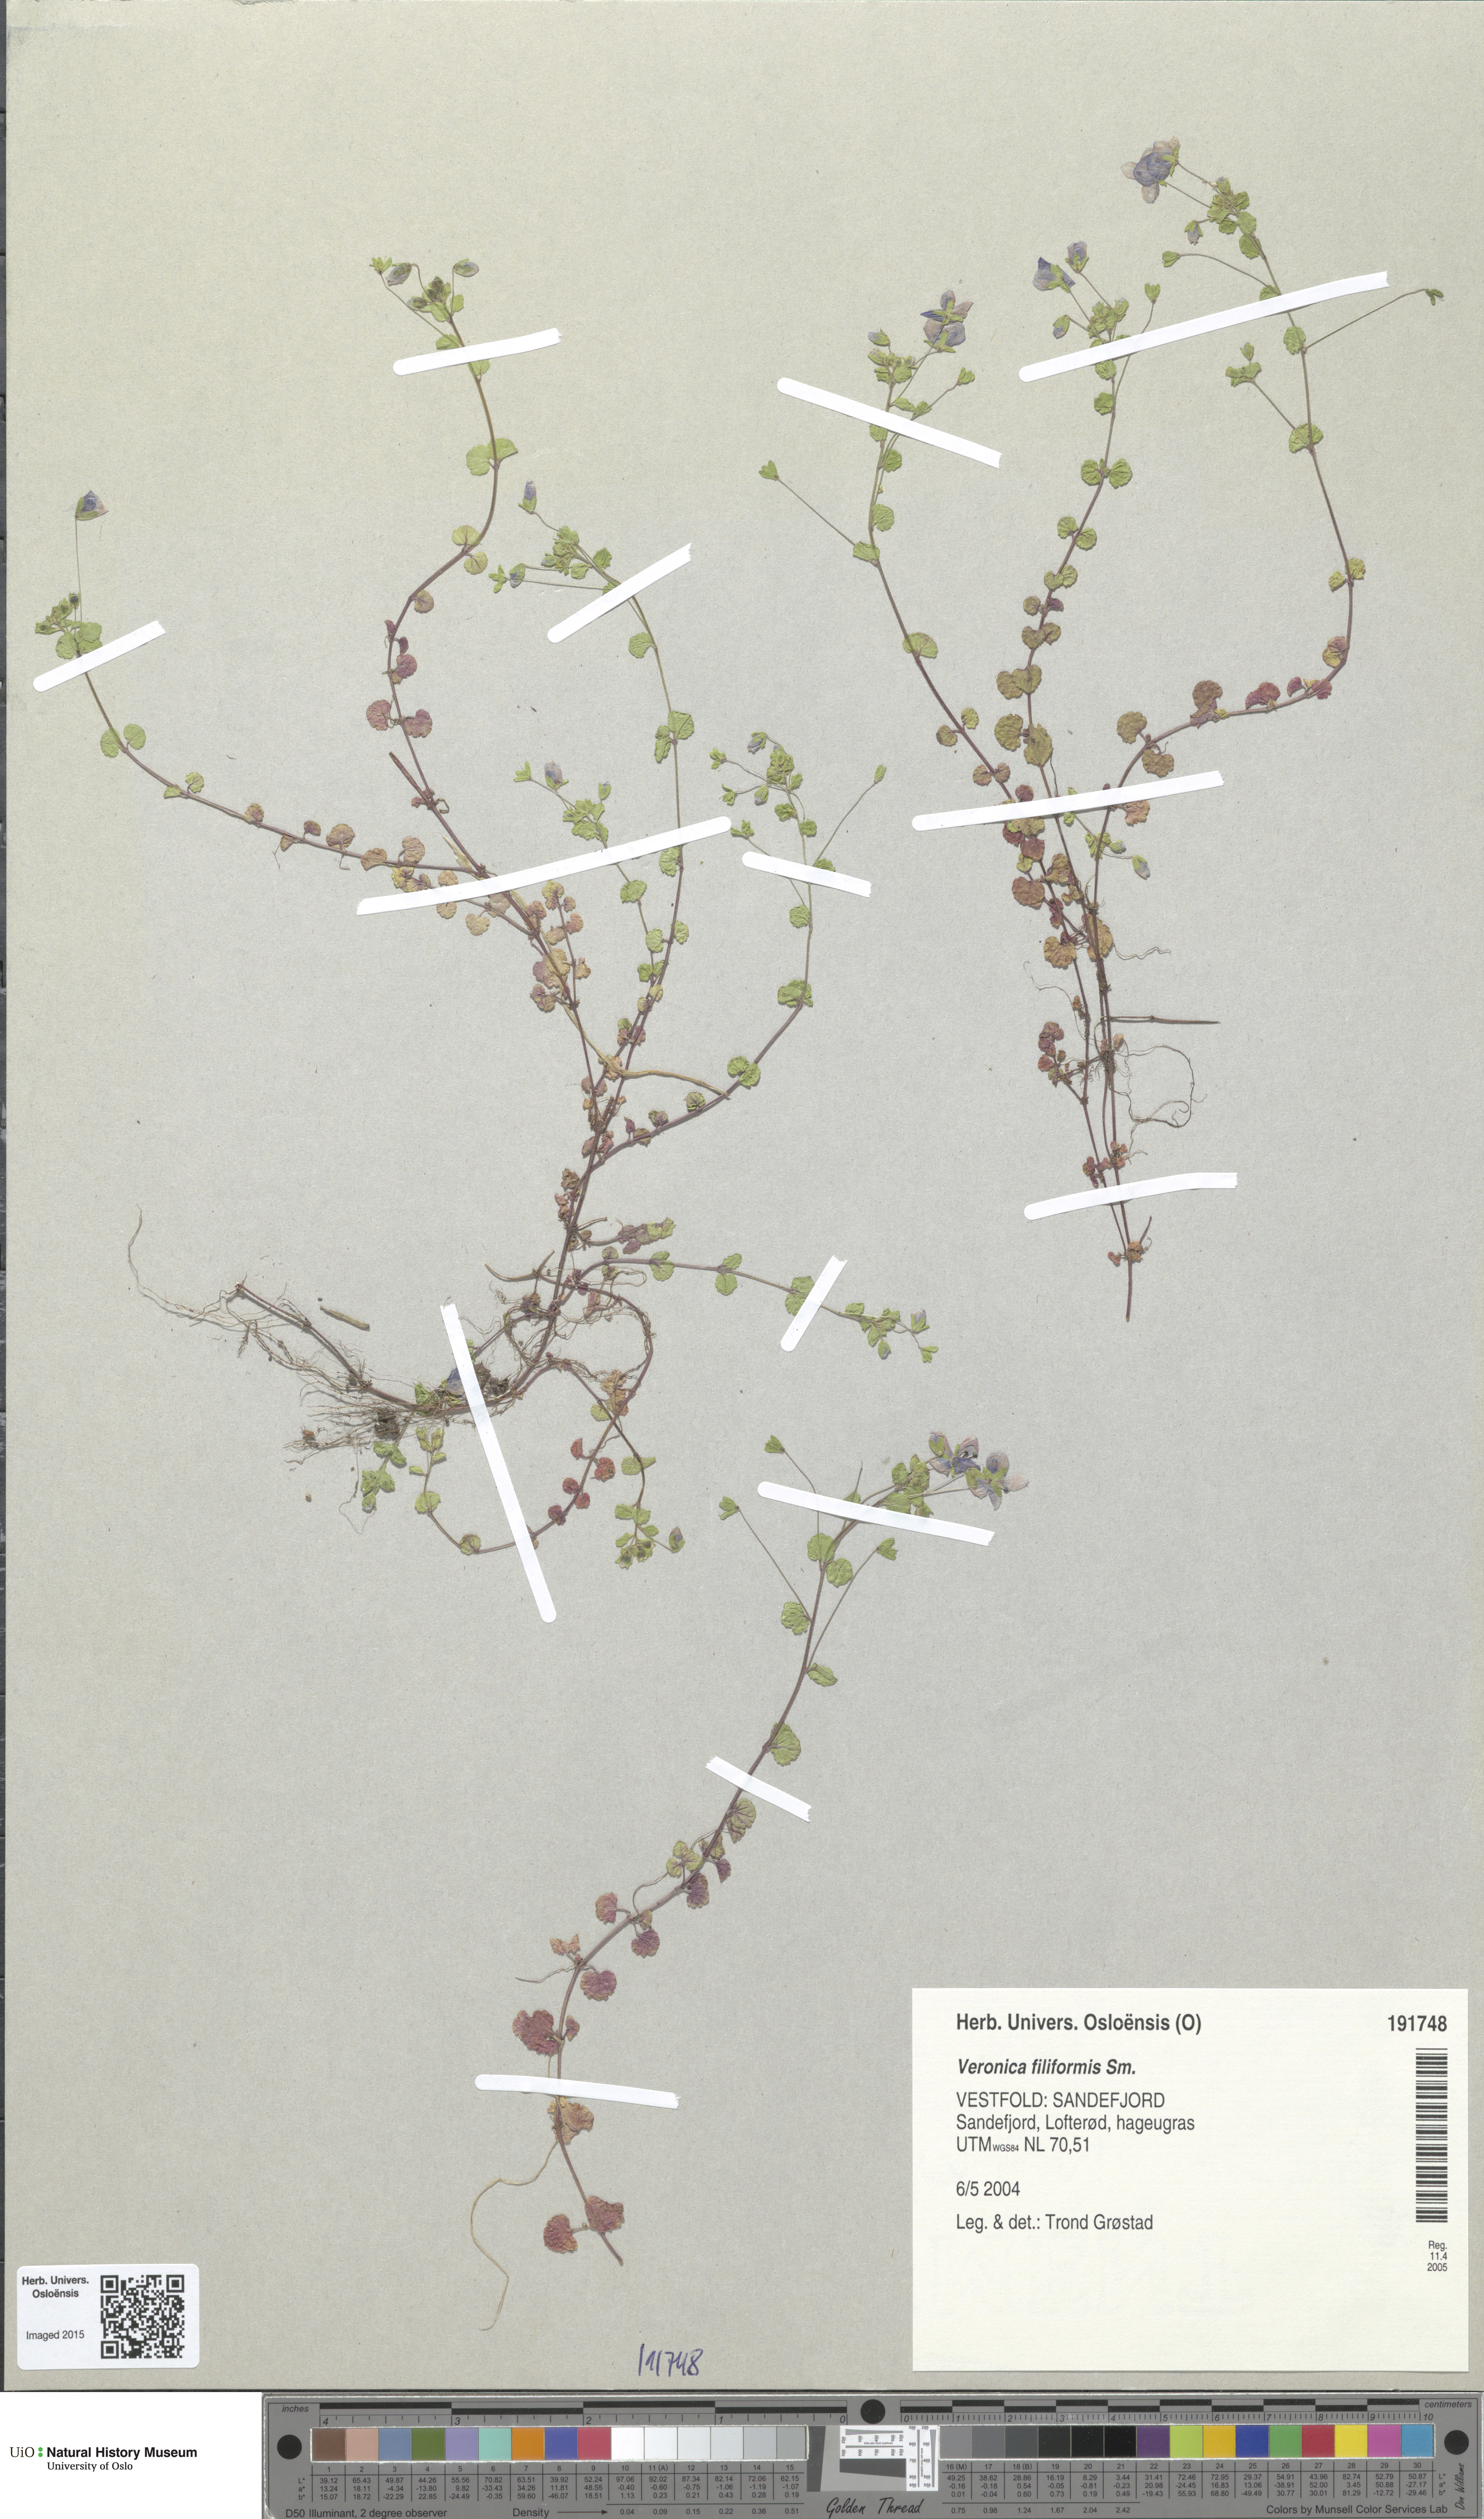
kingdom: Plantae
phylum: Tracheophyta
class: Magnoliopsida
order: Lamiales
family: Plantaginaceae
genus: Veronica
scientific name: Veronica filiformis
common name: Slender speedwell
